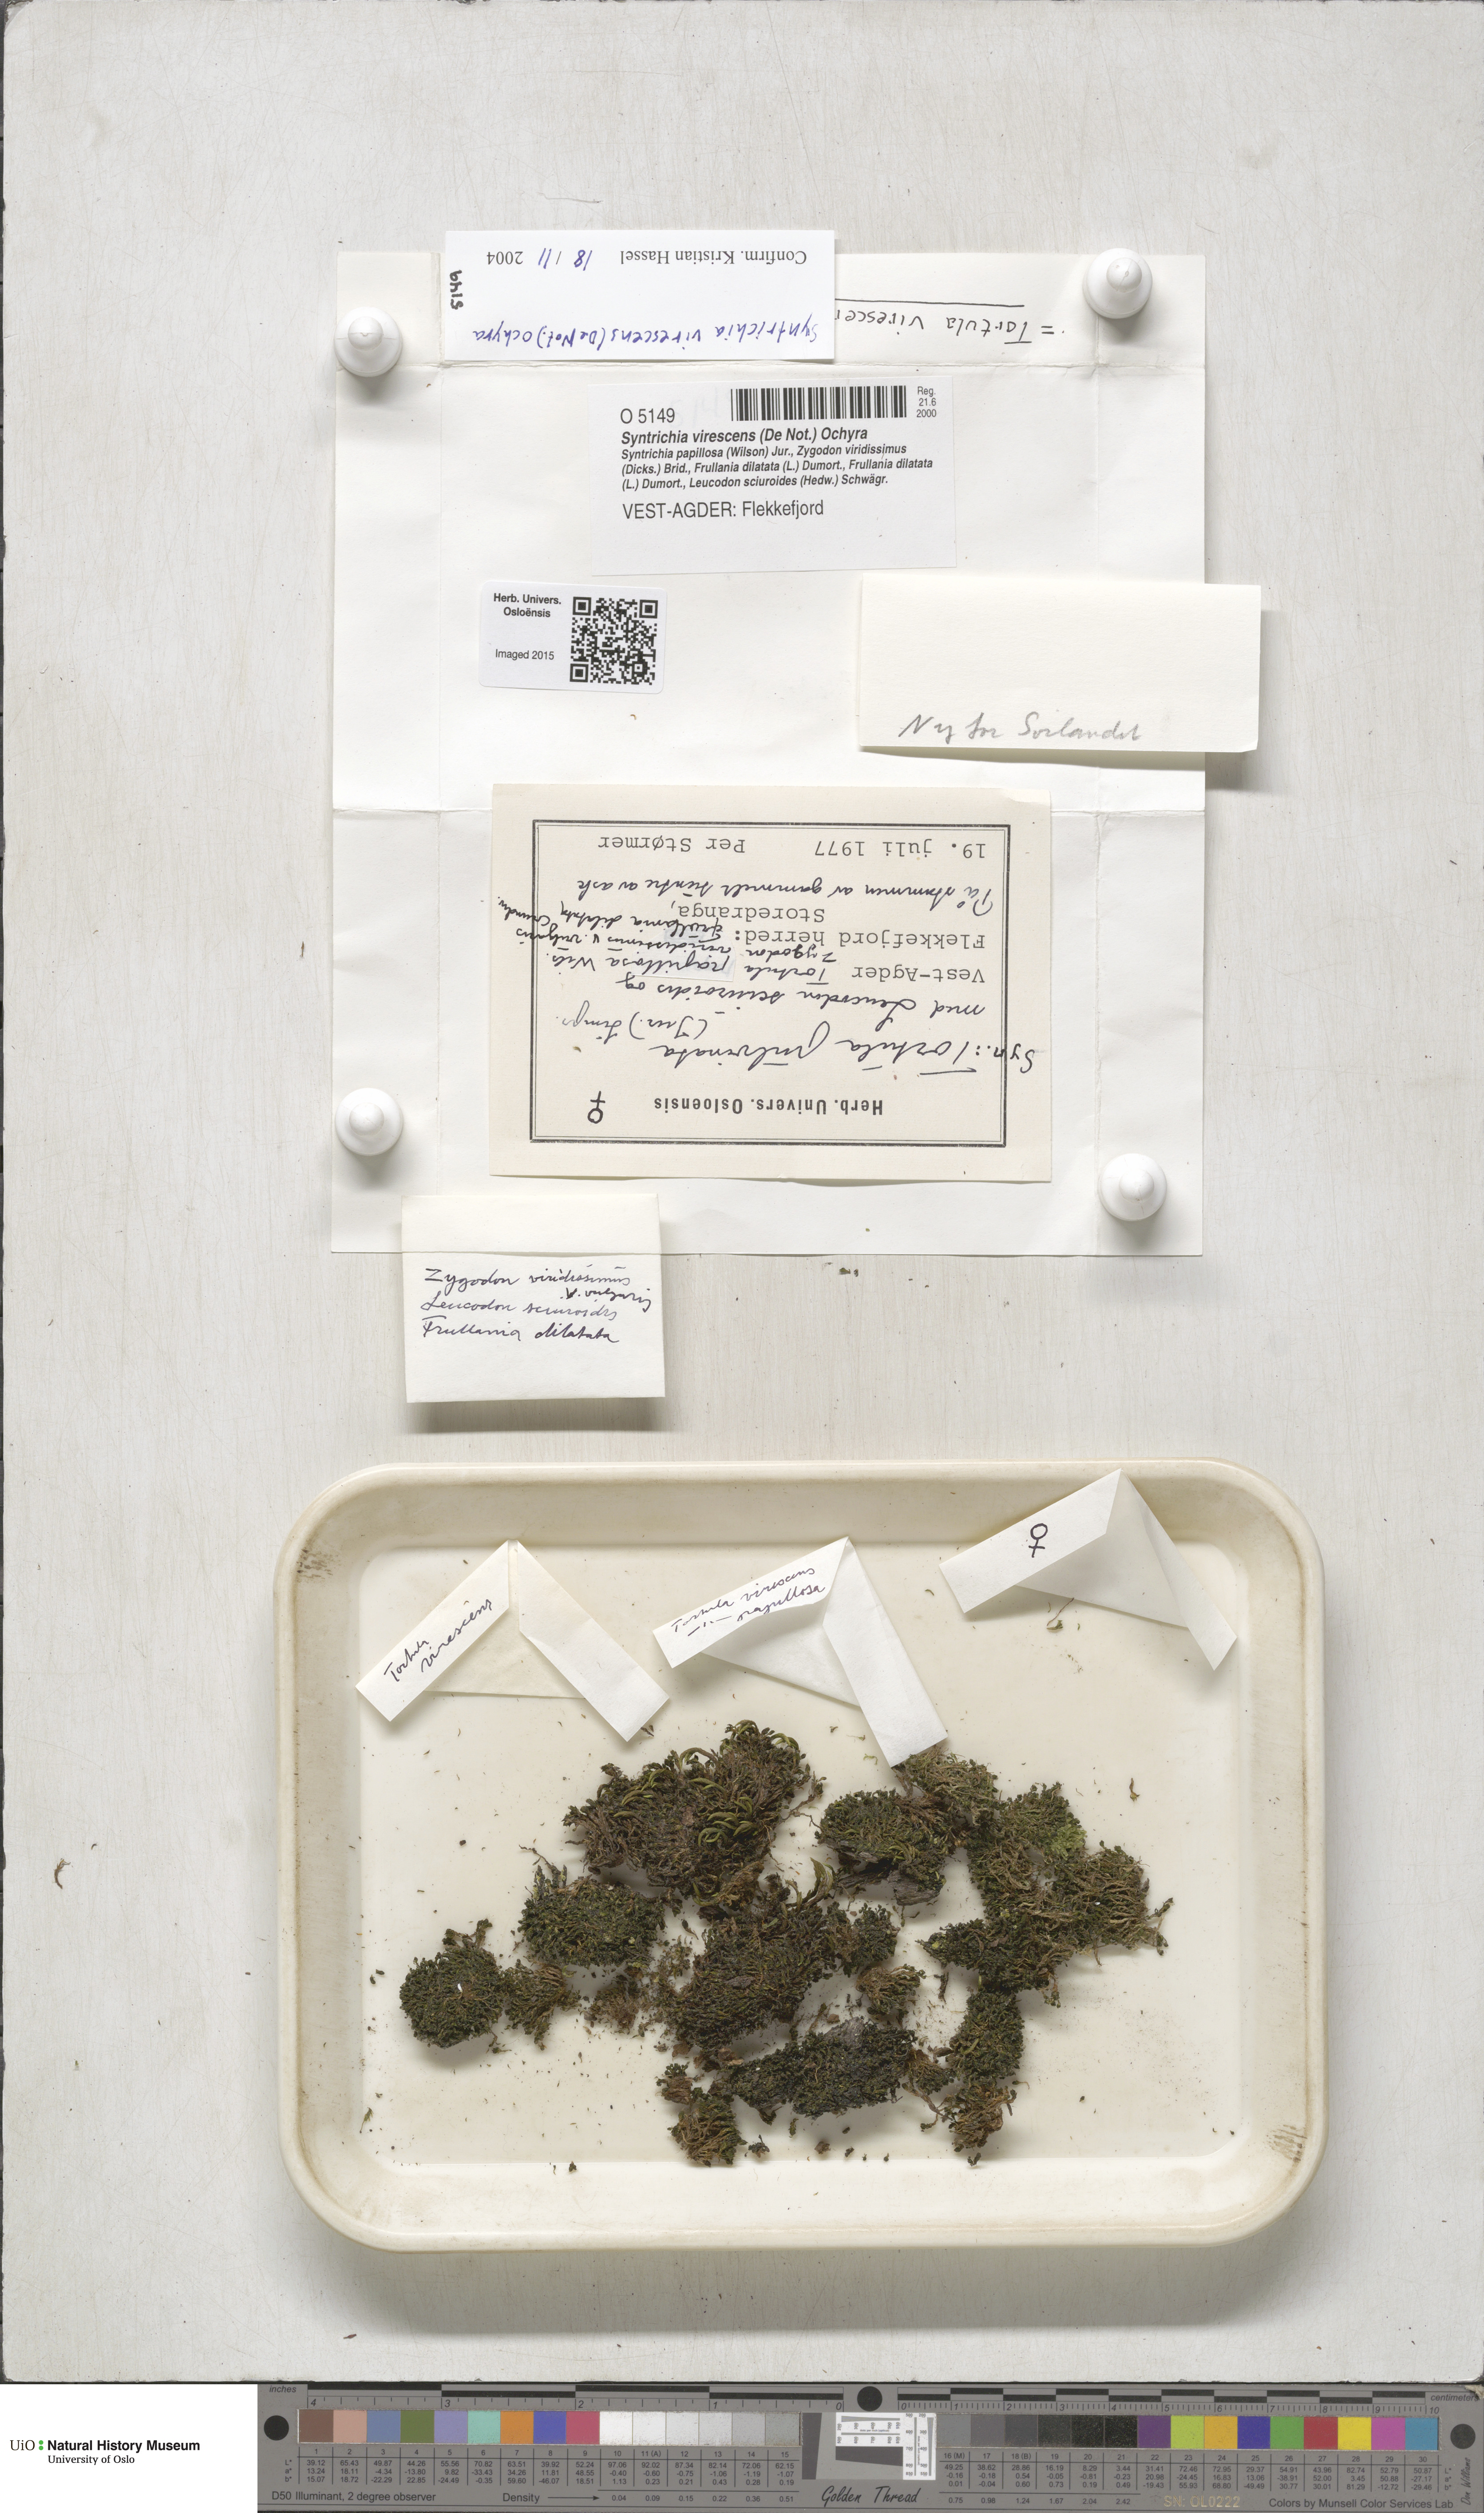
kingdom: Plantae
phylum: Bryophyta
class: Bryopsida
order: Pottiales
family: Pottiaceae
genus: Syntrichia
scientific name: Syntrichia virescens
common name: Lesser screw-moss
